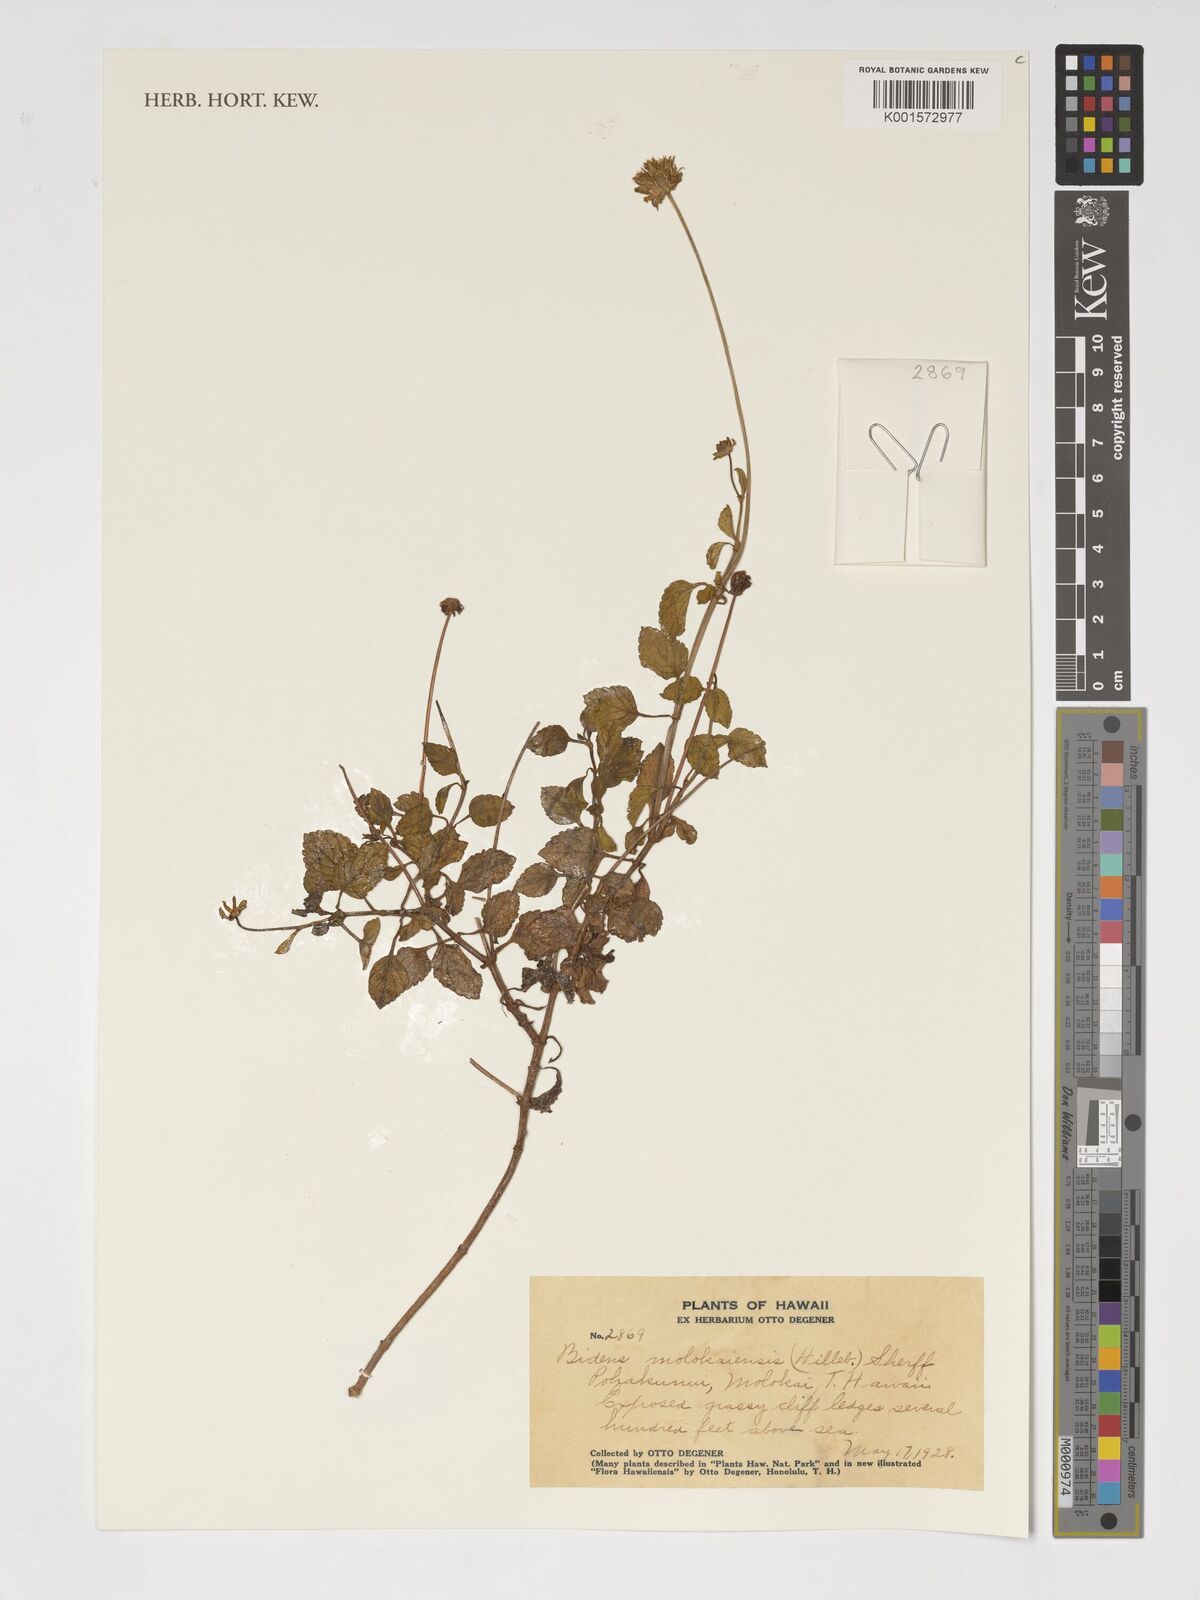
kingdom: Plantae
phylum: Tracheophyta
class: Magnoliopsida
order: Asterales
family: Asteraceae
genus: Bidens
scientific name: Bidens molokaiensis
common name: Molokai beggarticks
